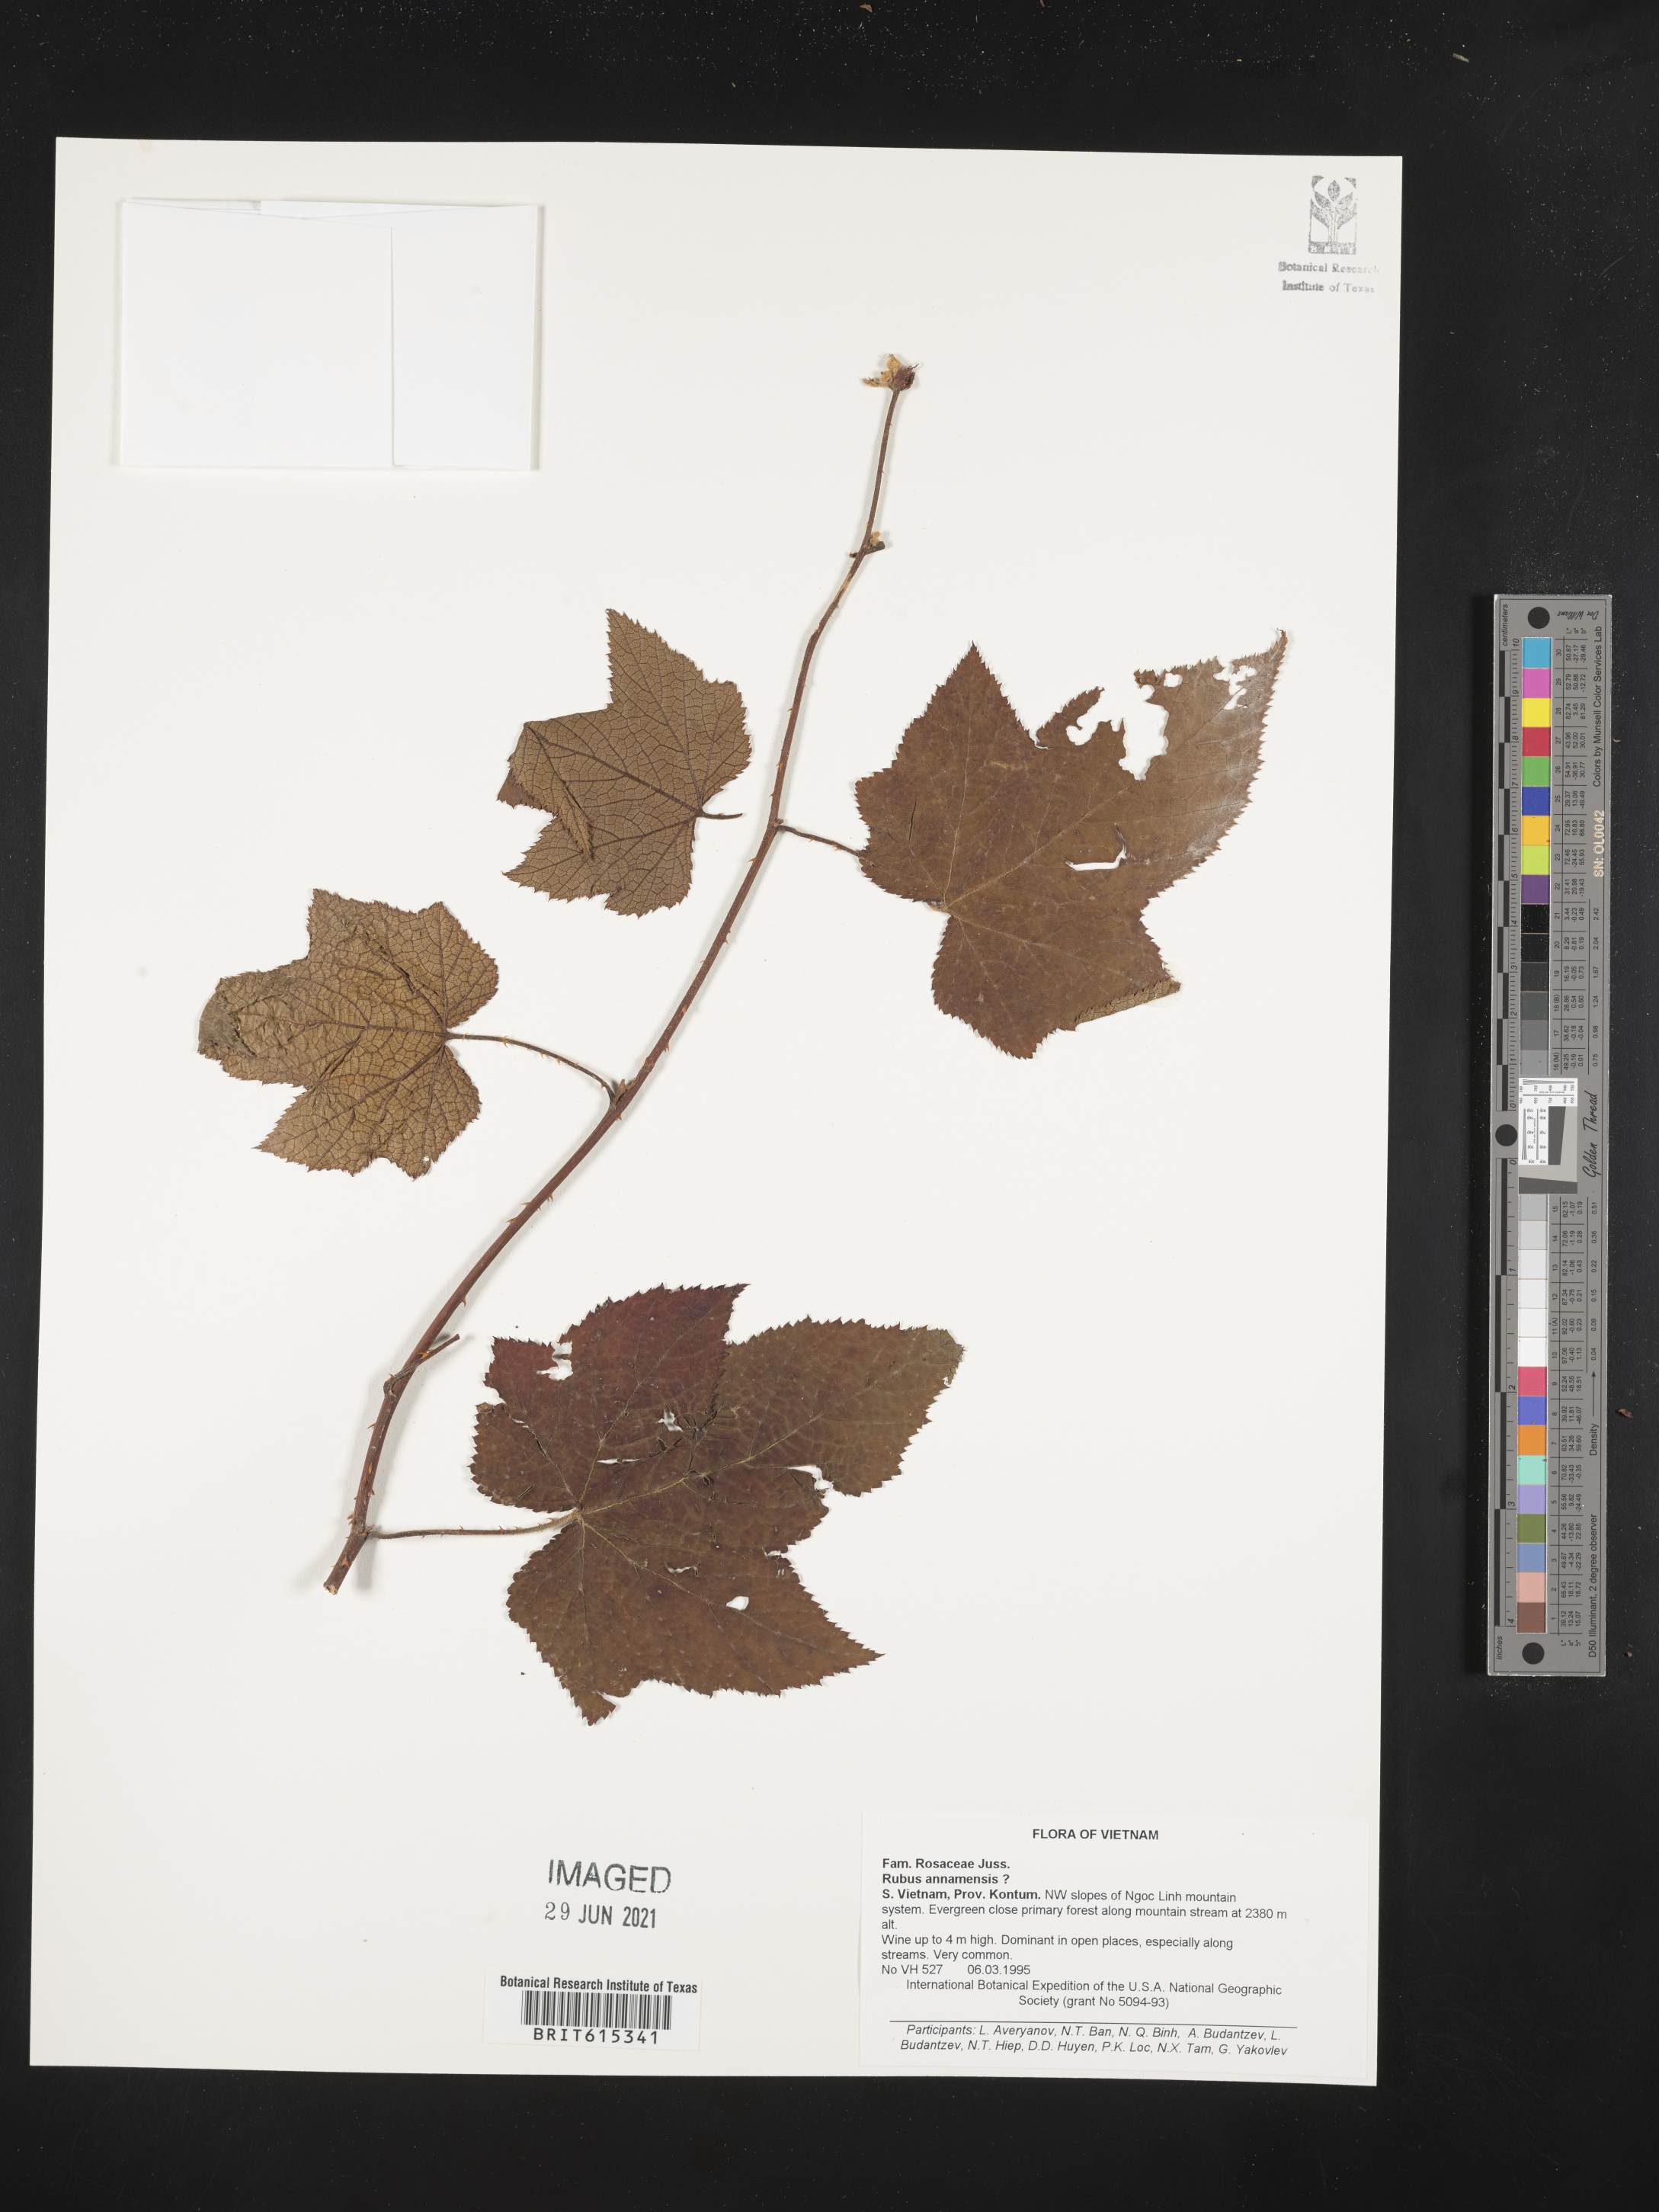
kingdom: Plantae
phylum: Tracheophyta
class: Magnoliopsida
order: Rosales
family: Rosaceae
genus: Rubus
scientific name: Rubus annamensis
